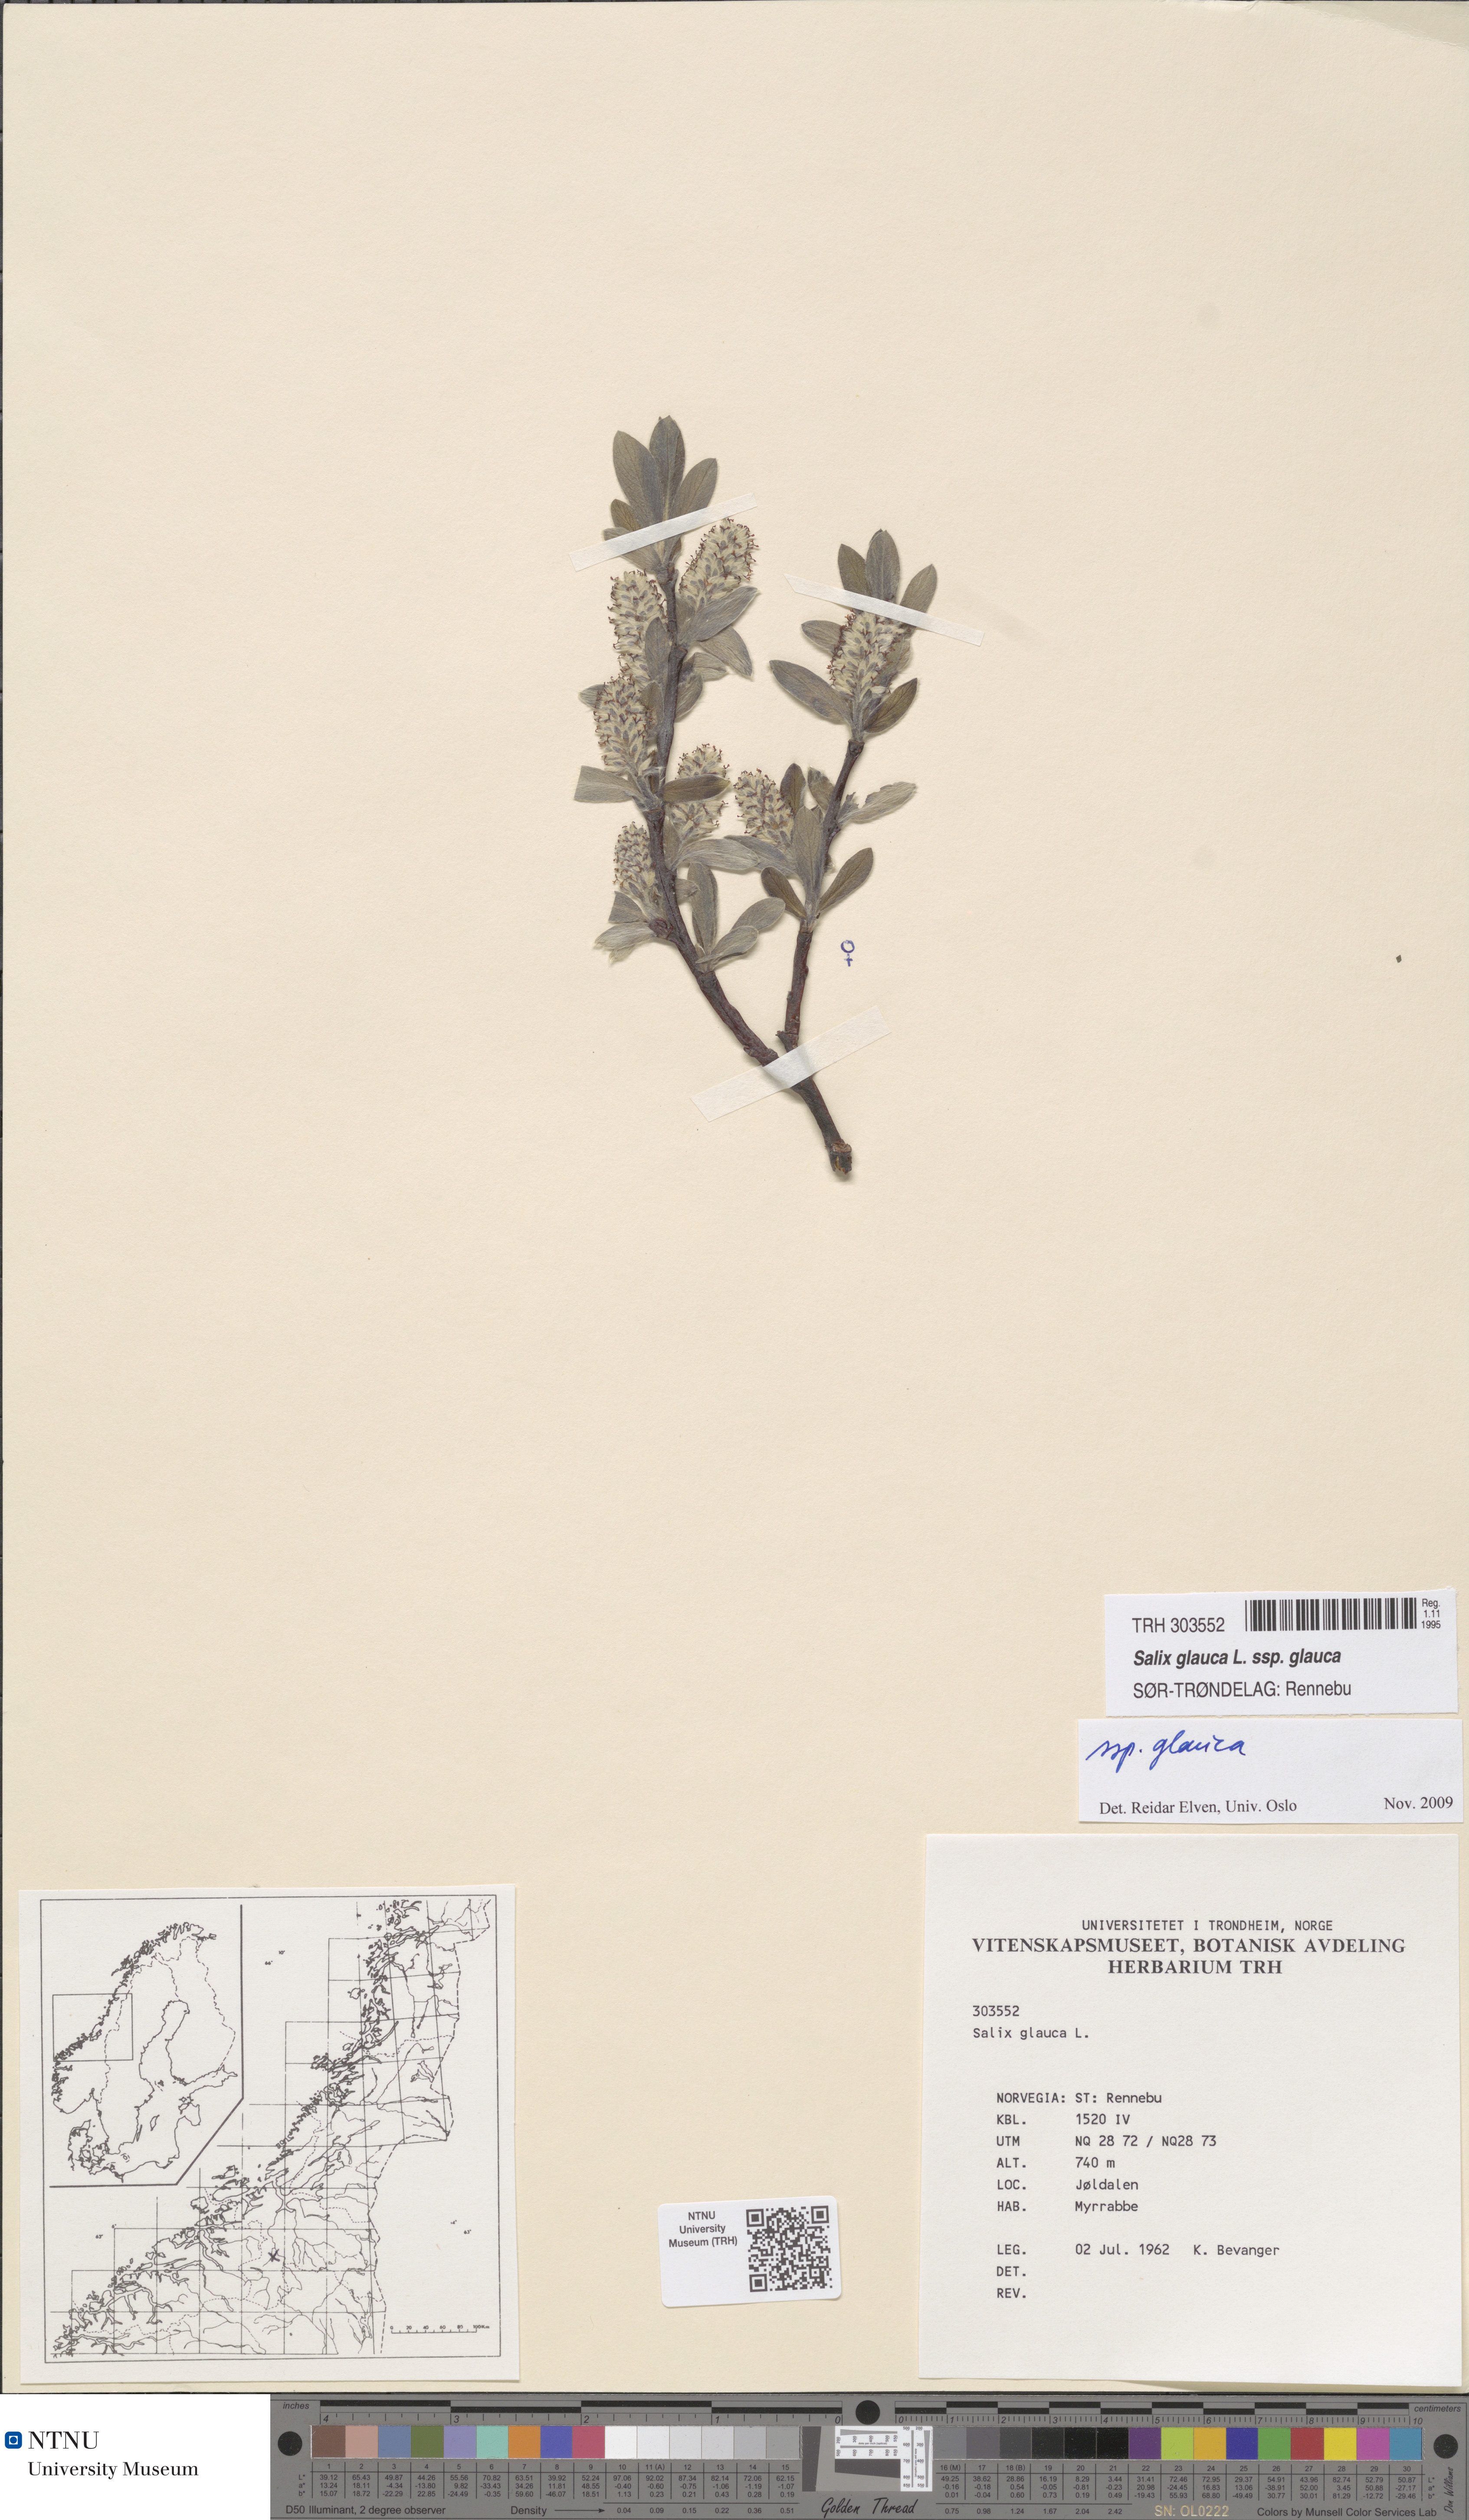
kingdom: Plantae
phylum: Tracheophyta
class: Magnoliopsida
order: Malpighiales
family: Salicaceae
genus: Salix
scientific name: Salix glauca
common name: Glaucous willow
